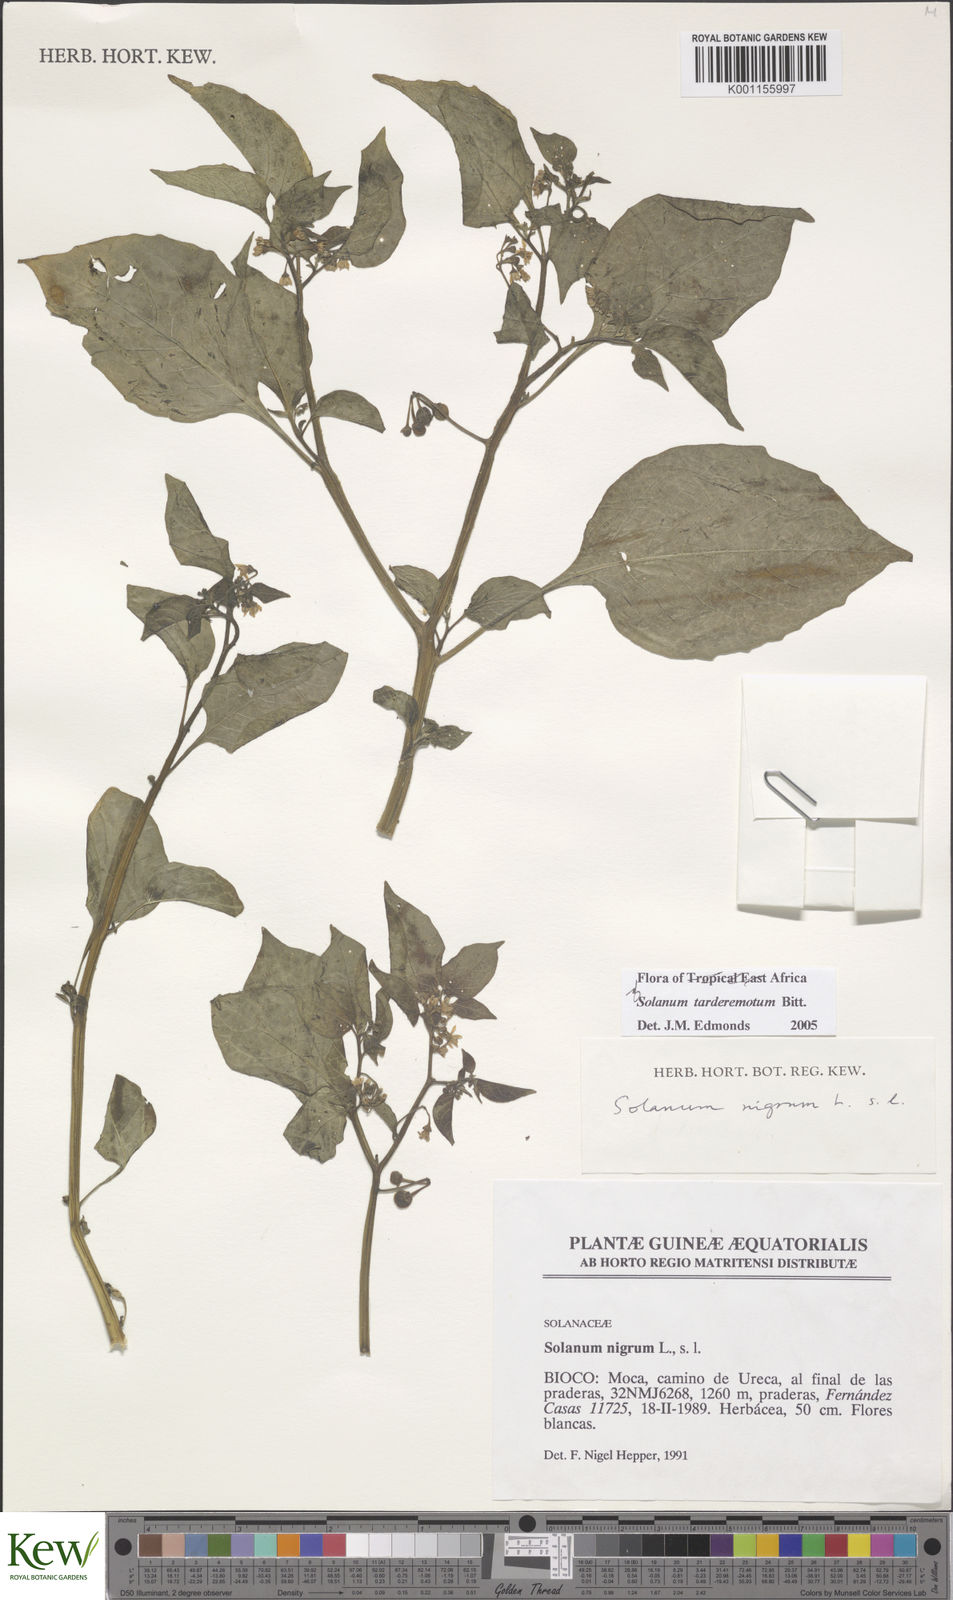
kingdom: Plantae
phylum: Tracheophyta
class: Magnoliopsida
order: Solanales
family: Solanaceae
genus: Solanum
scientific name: Solanum scabrum
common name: Garden-huckleberry
